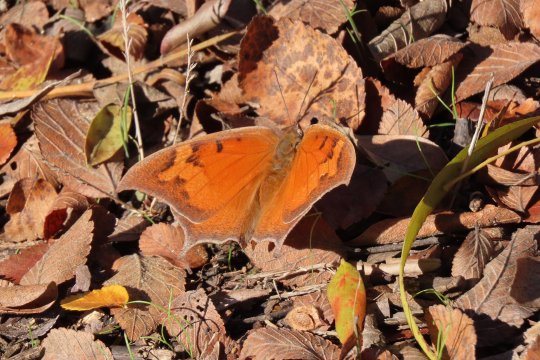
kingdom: Animalia
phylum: Arthropoda
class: Insecta
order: Lepidoptera
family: Nymphalidae
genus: Anaea
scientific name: Anaea andria
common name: Goatweed Leafwing
